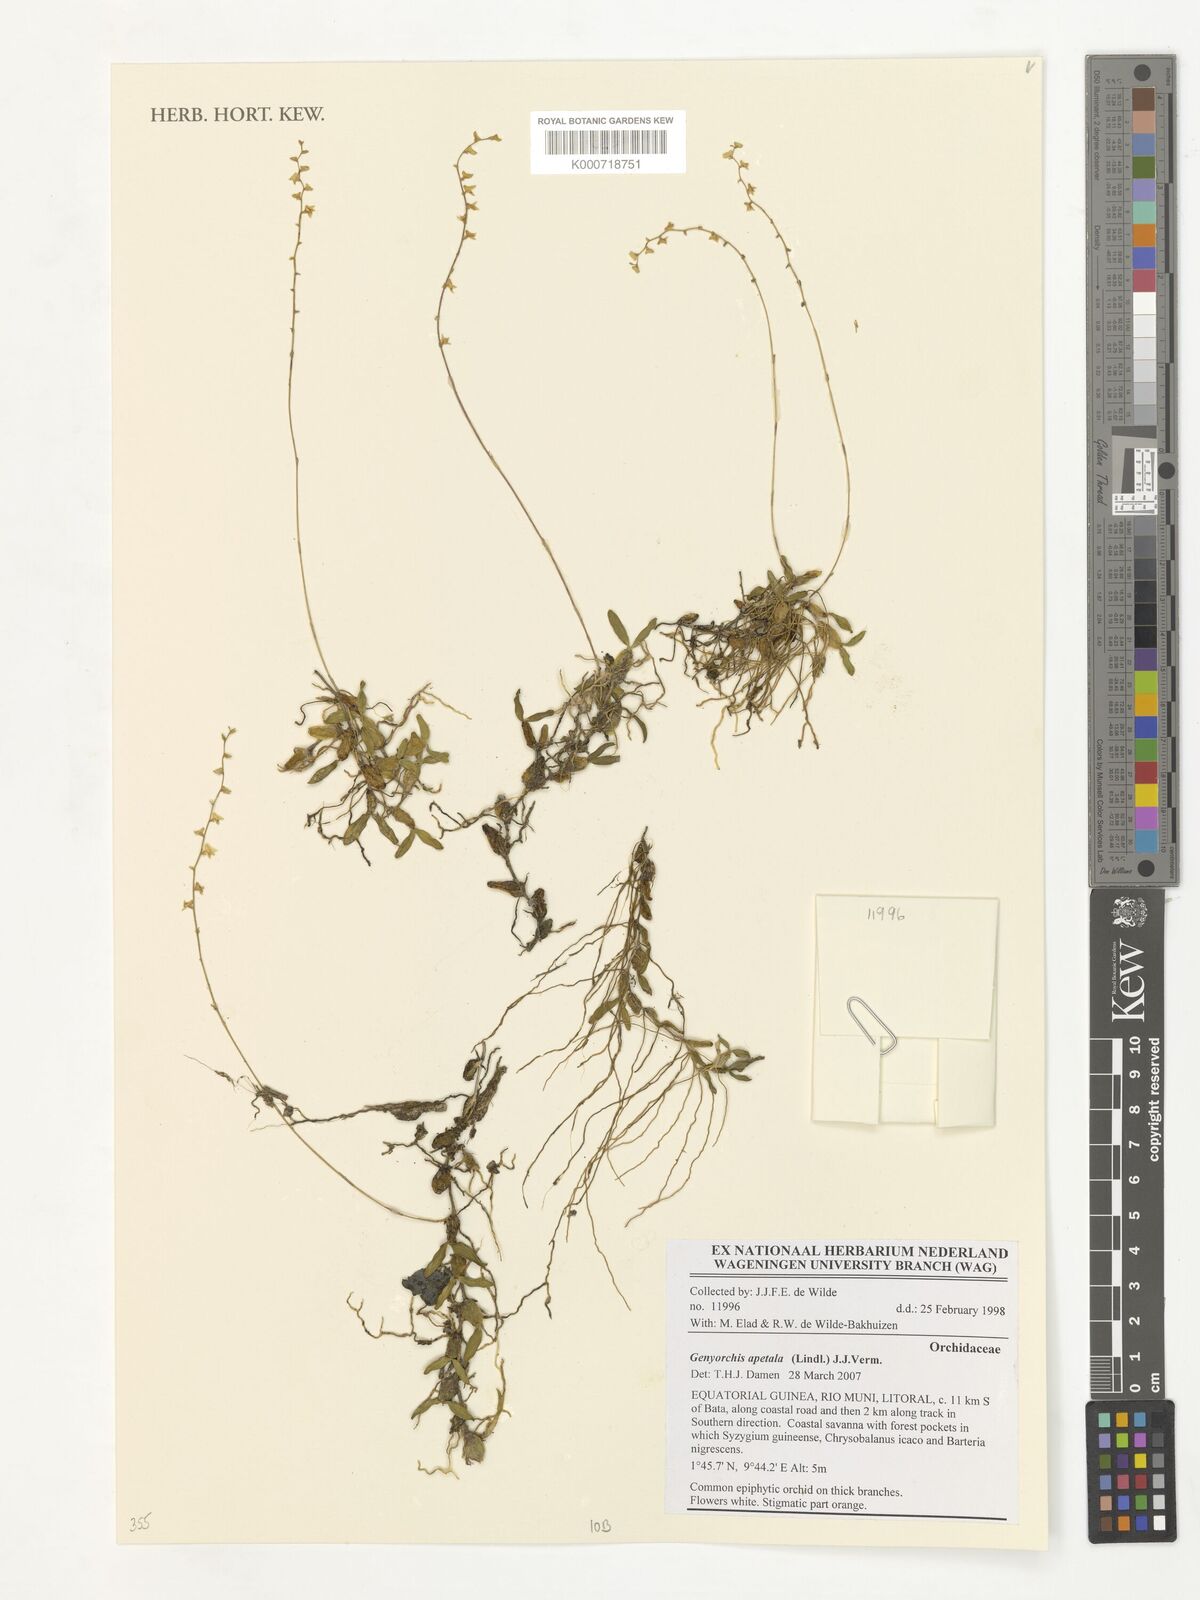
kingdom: Plantae
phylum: Tracheophyta
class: Liliopsida
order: Asparagales
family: Orchidaceae
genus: Bulbophyllum
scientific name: Bulbophyllum apetalum
